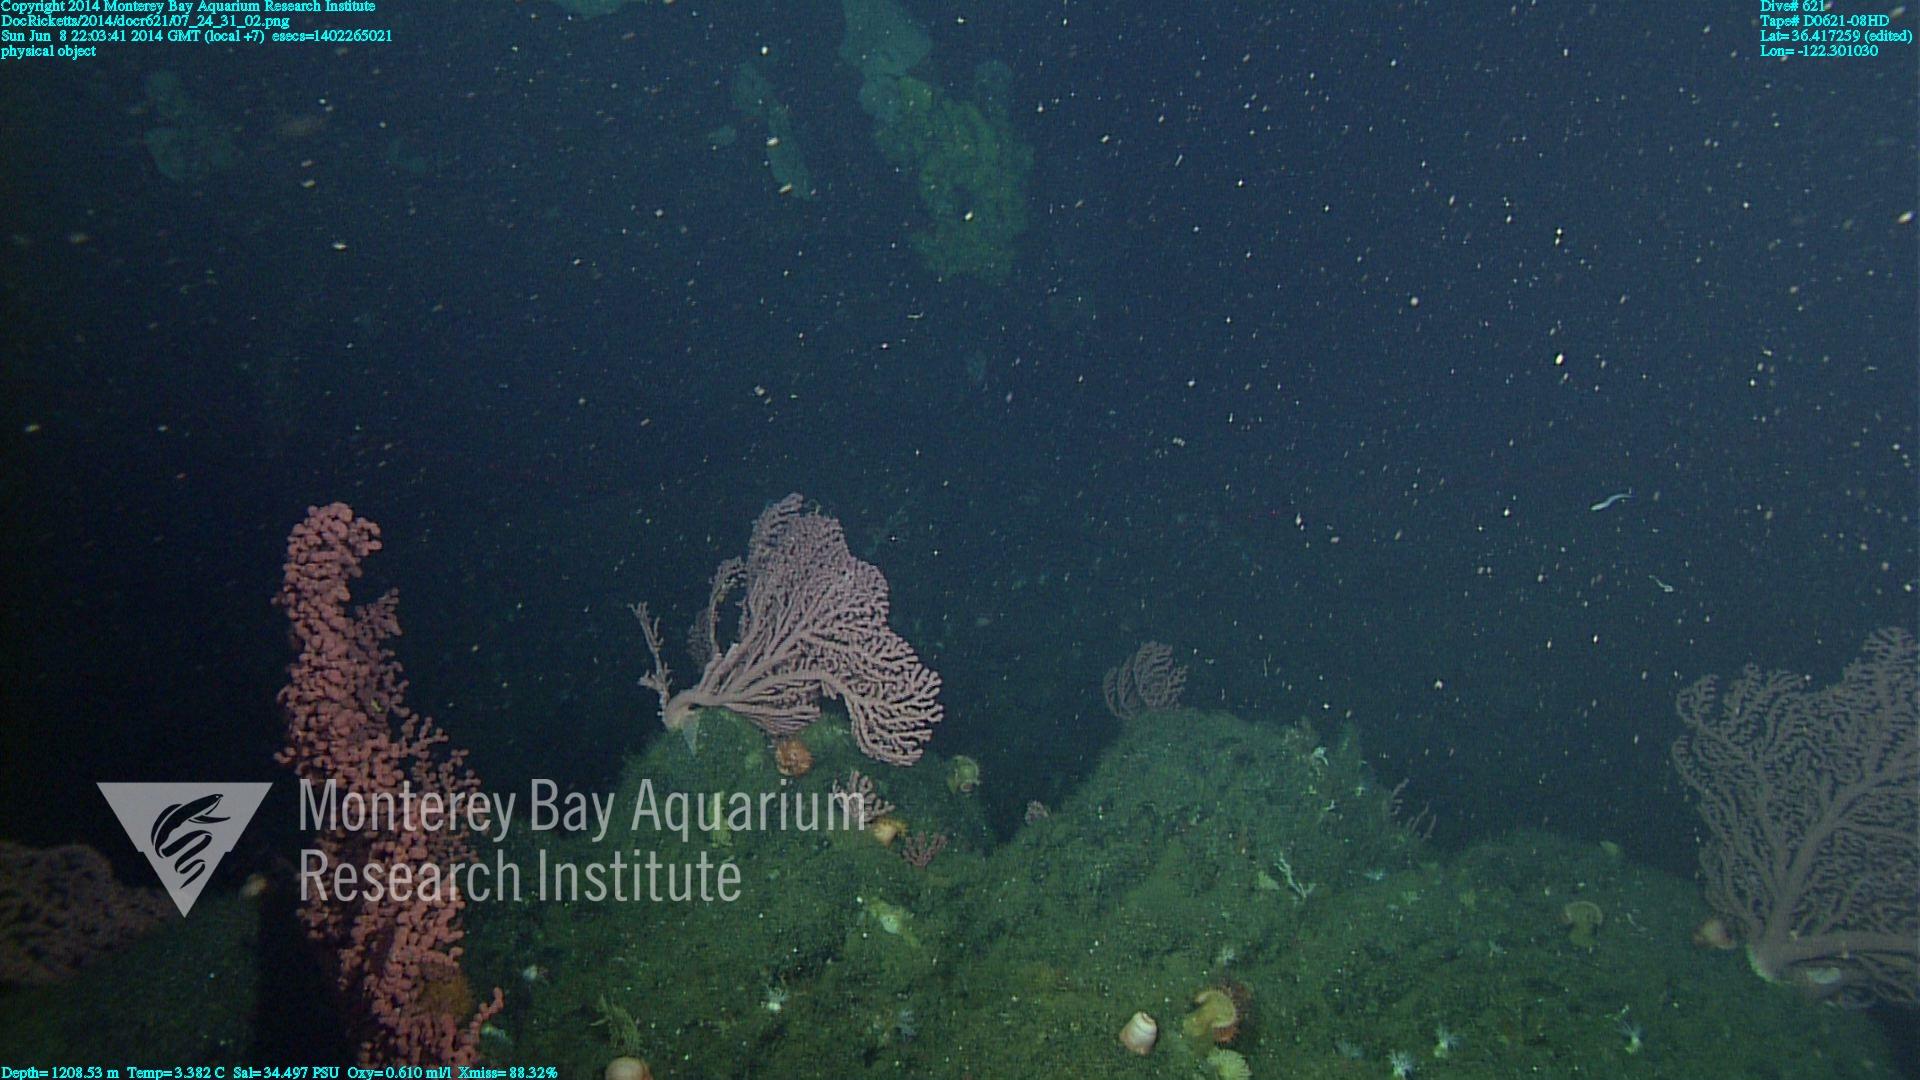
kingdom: Animalia
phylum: Cnidaria
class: Anthozoa
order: Scleralcyonacea
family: Coralliidae
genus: Paragorgia
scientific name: Paragorgia arborea
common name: Bubble gum coral
